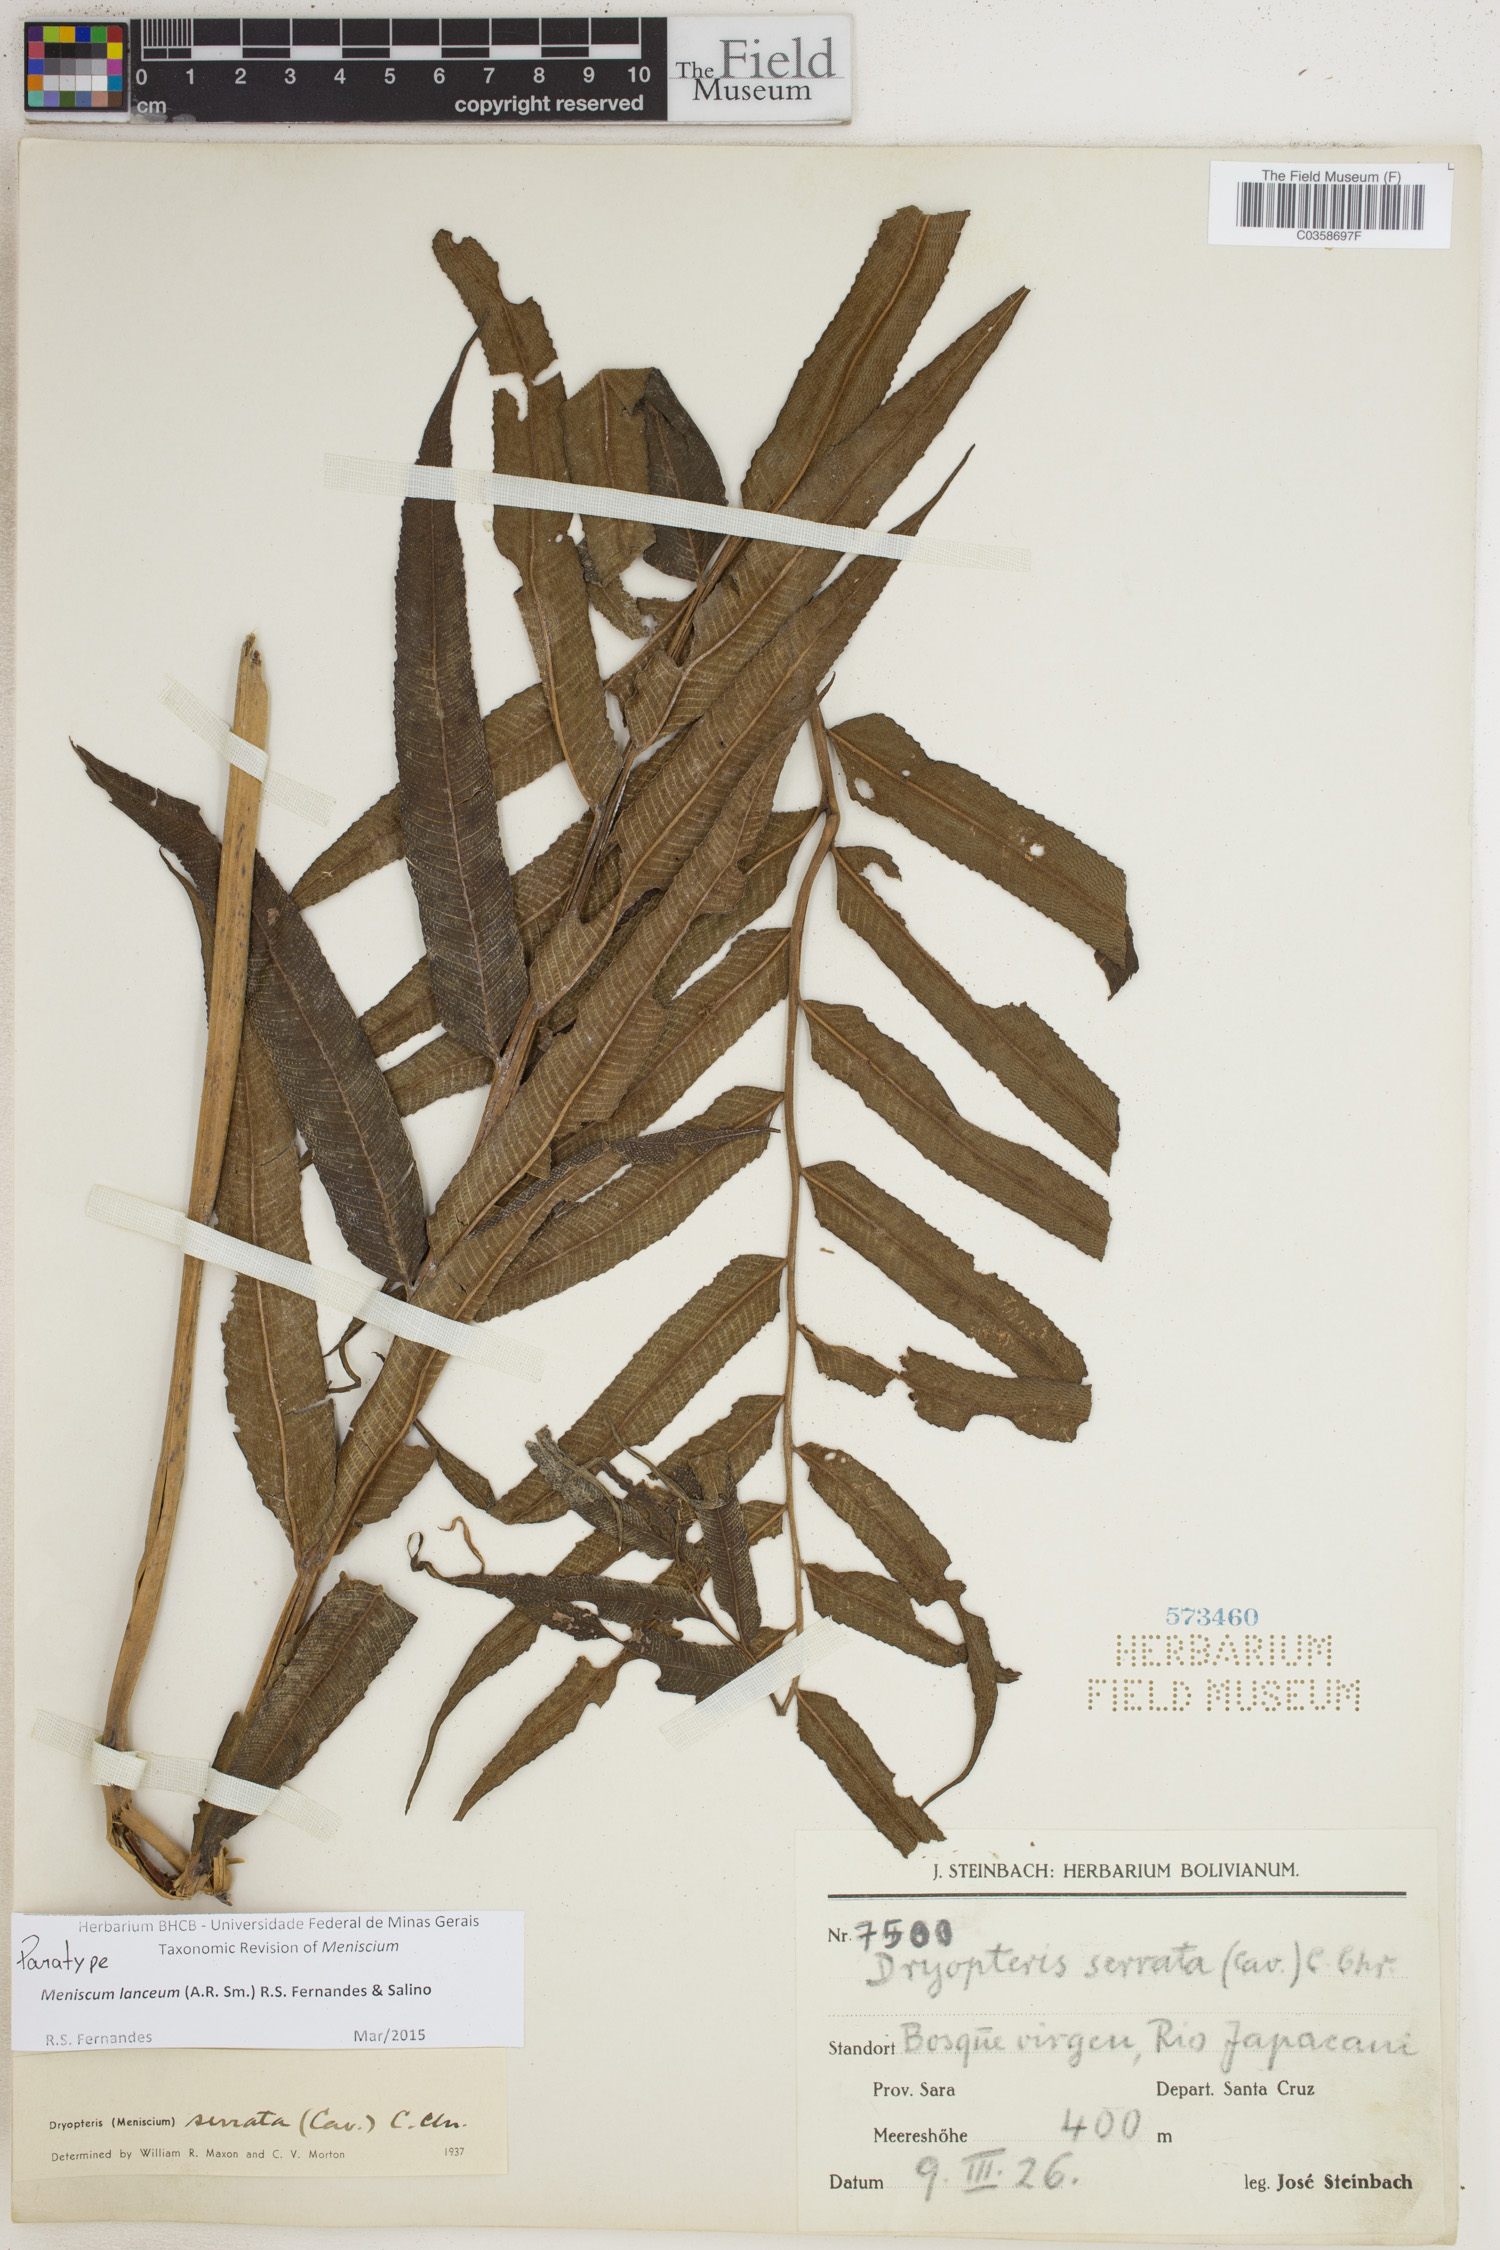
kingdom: Plantae
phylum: Tracheophyta
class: Polypodiopsida
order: Polypodiales
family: Thelypteridaceae
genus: Meniscium
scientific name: Meniscium lanceum
